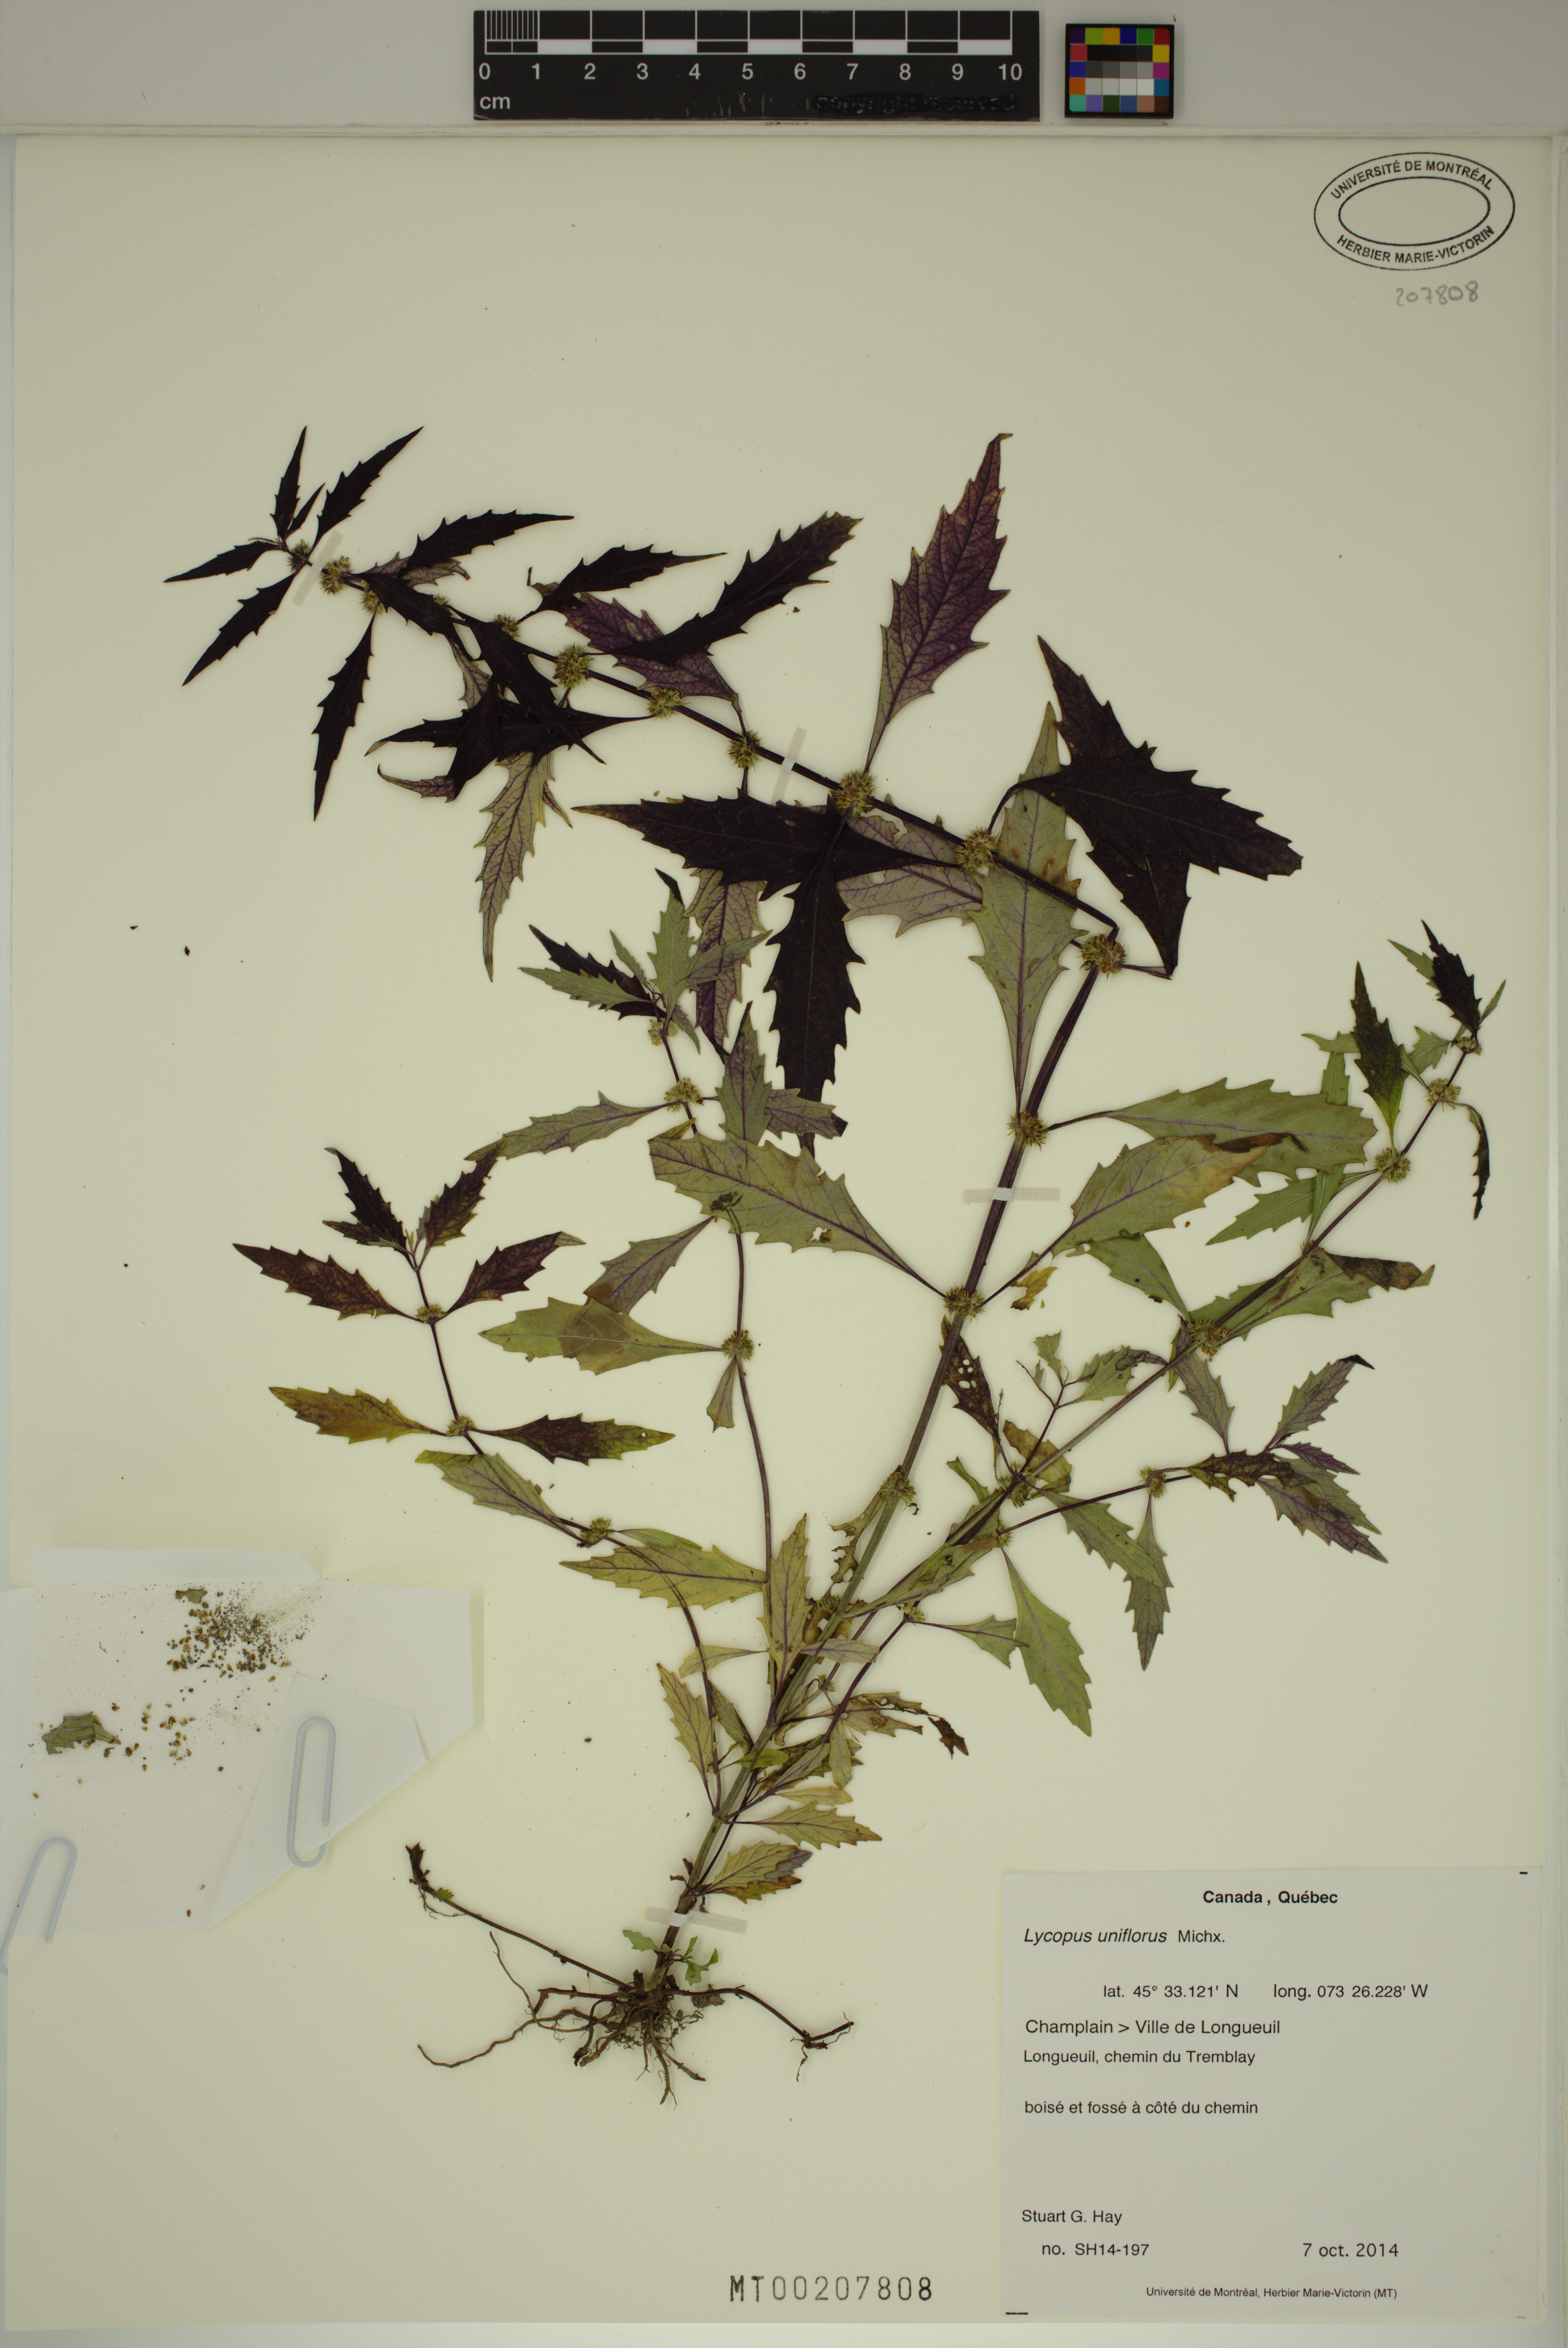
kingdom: Plantae
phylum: Tracheophyta
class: Magnoliopsida
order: Lamiales
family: Lamiaceae
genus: Lycopus
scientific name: Lycopus uniflorus
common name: Northern bugleweed
